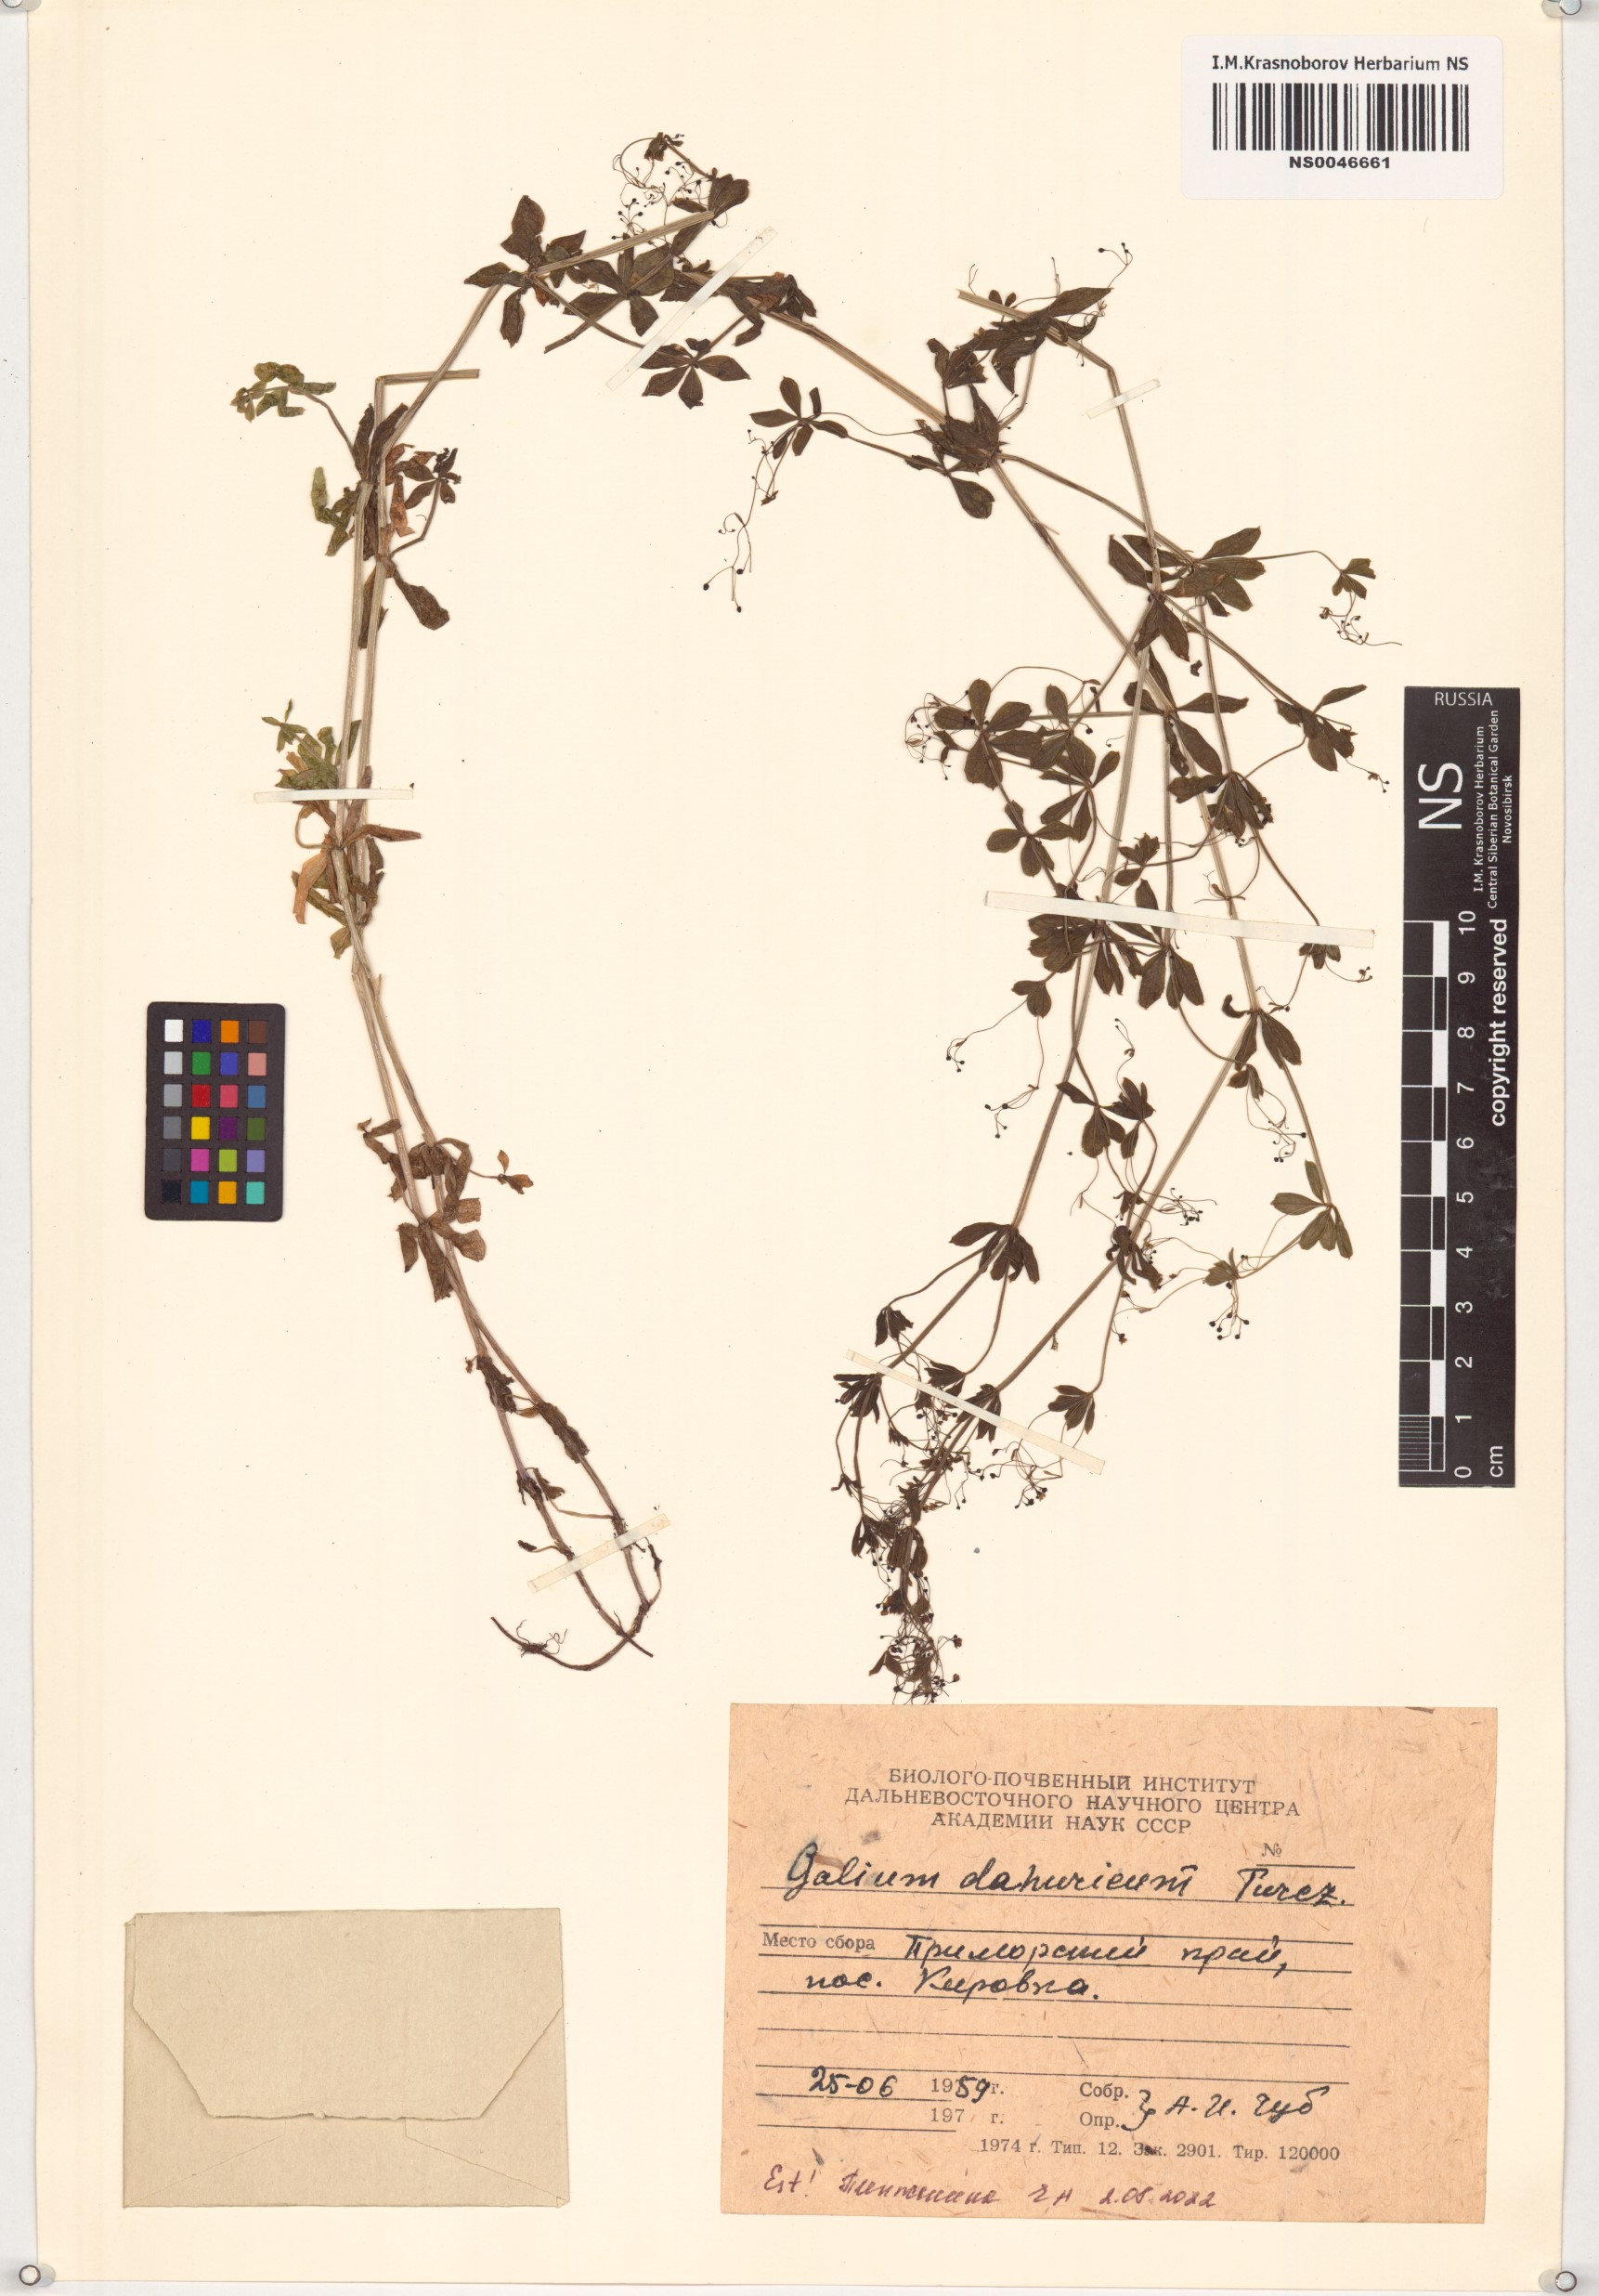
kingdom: Plantae
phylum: Tracheophyta
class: Magnoliopsida
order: Gentianales
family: Rubiaceae
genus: Galium
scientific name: Galium dahuricum
